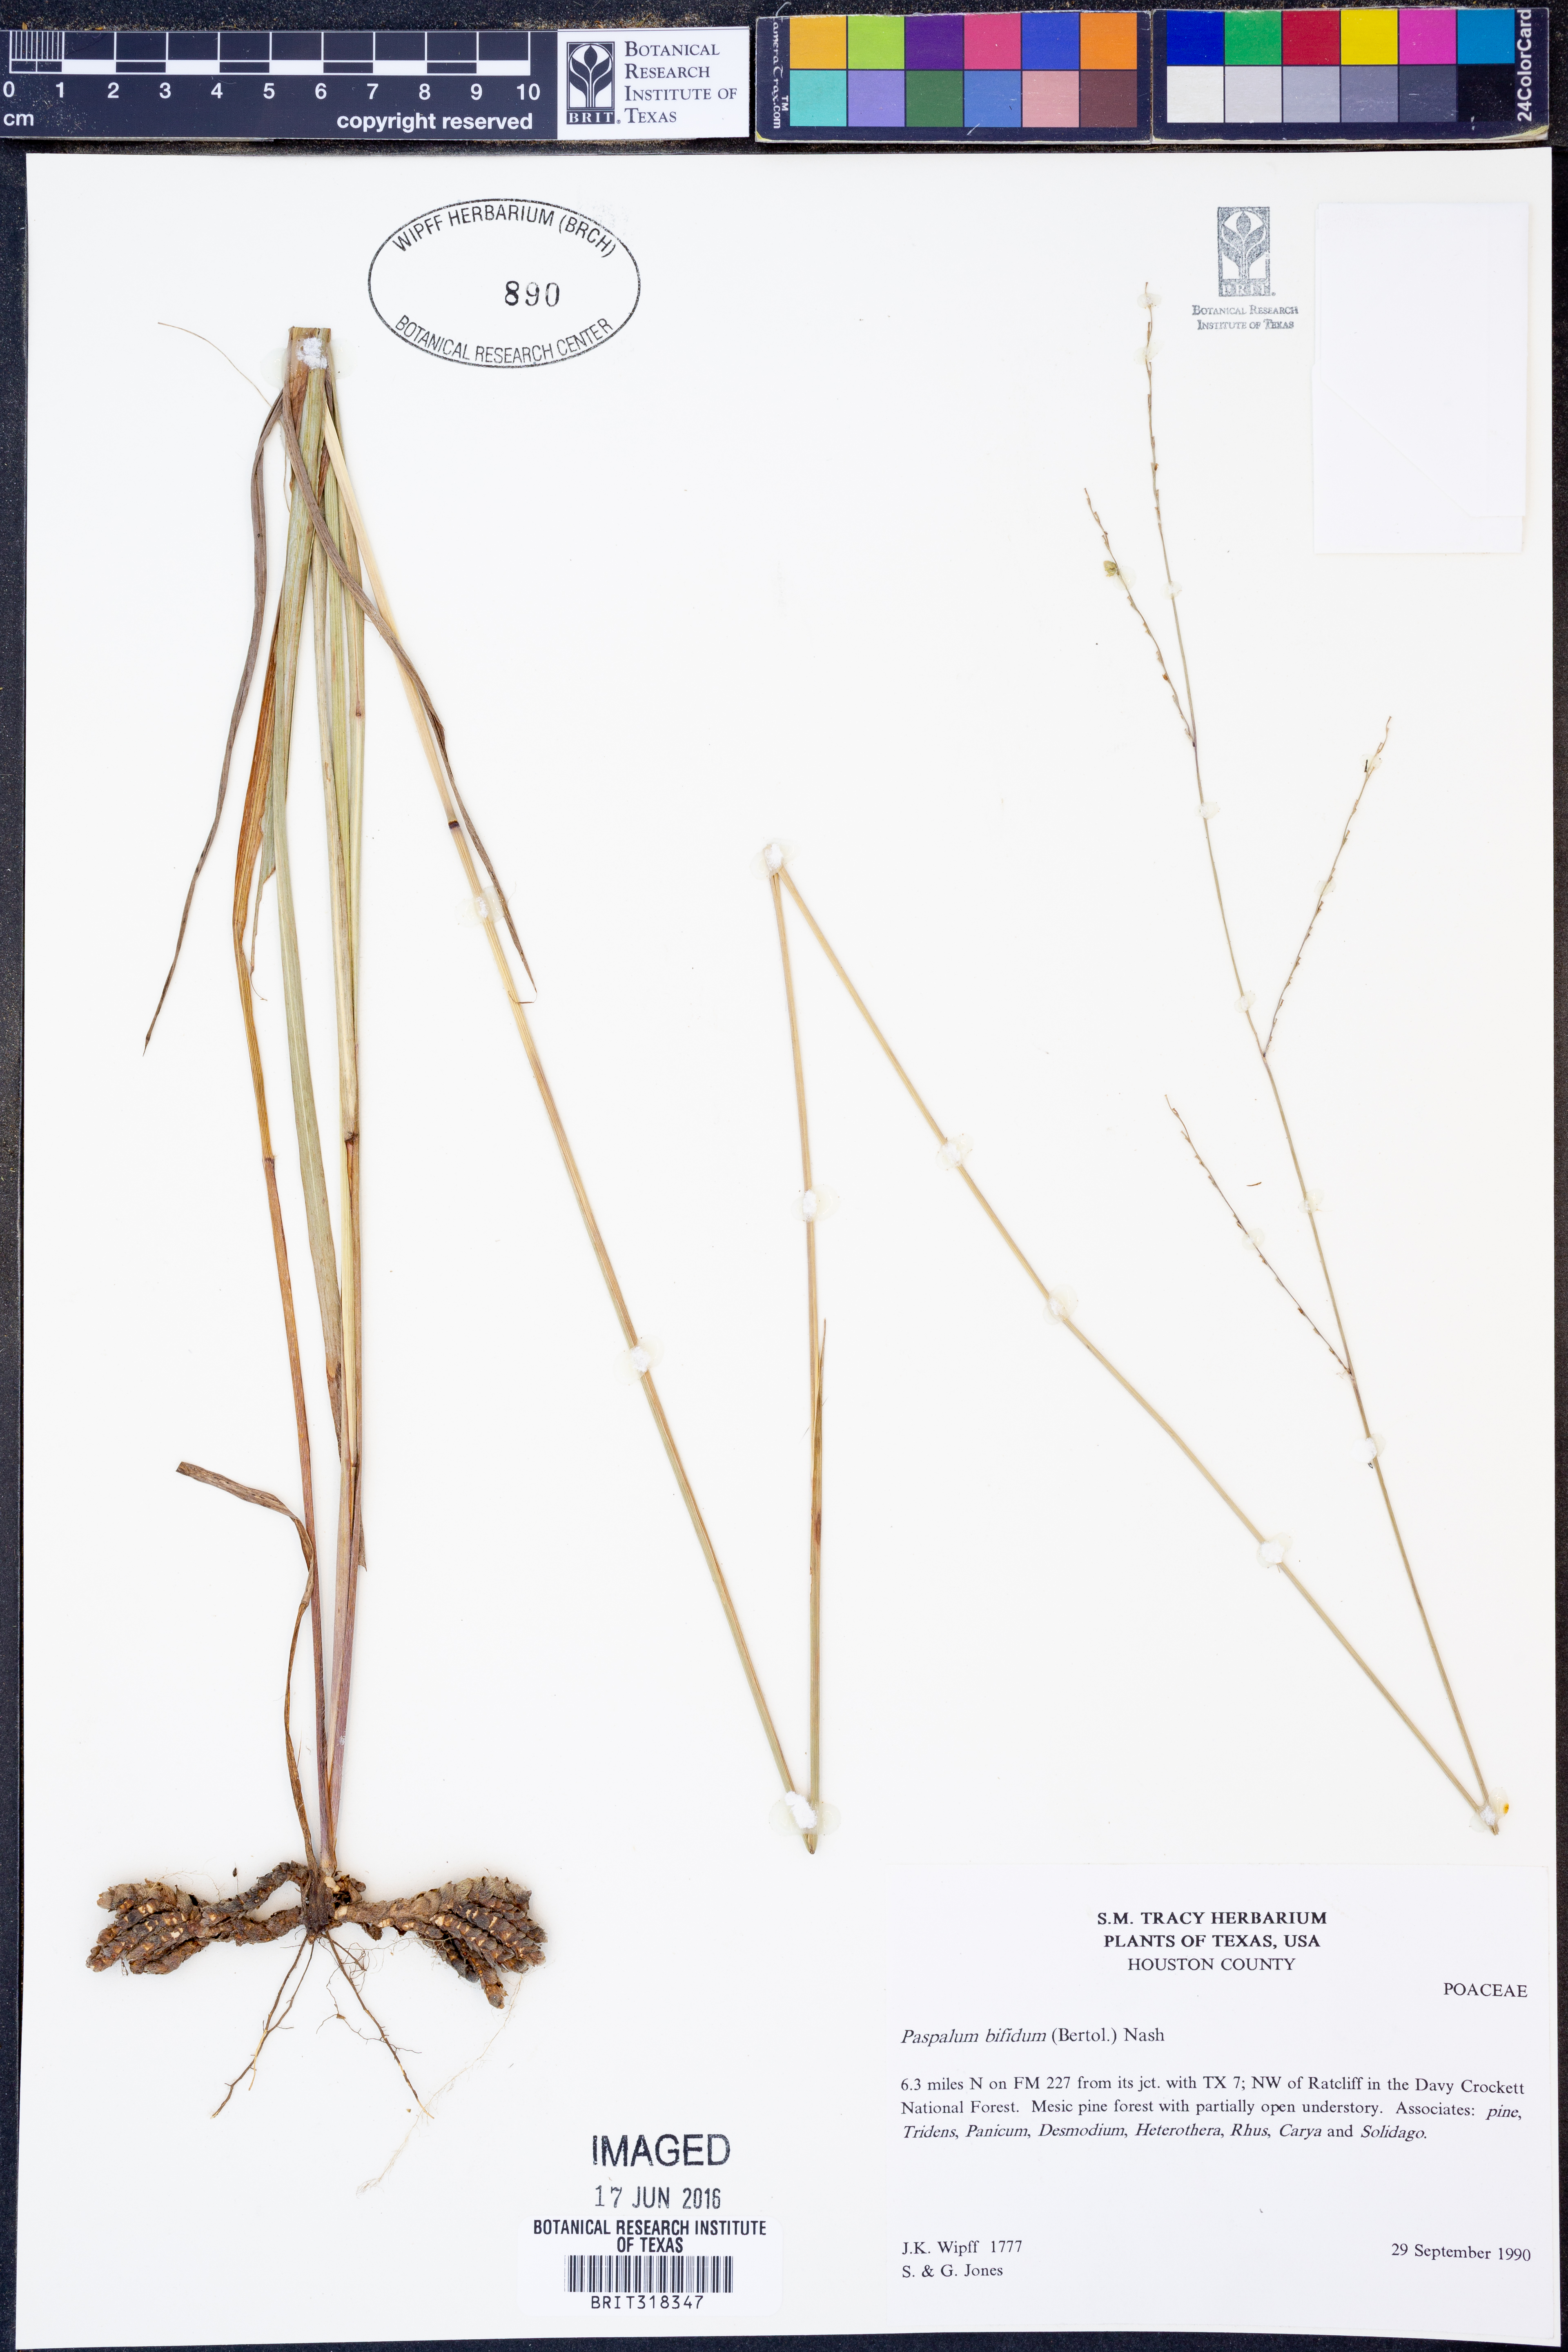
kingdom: Plantae
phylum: Tracheophyta
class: Liliopsida
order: Poales
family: Poaceae
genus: Paspalum
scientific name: Paspalum bifidum
